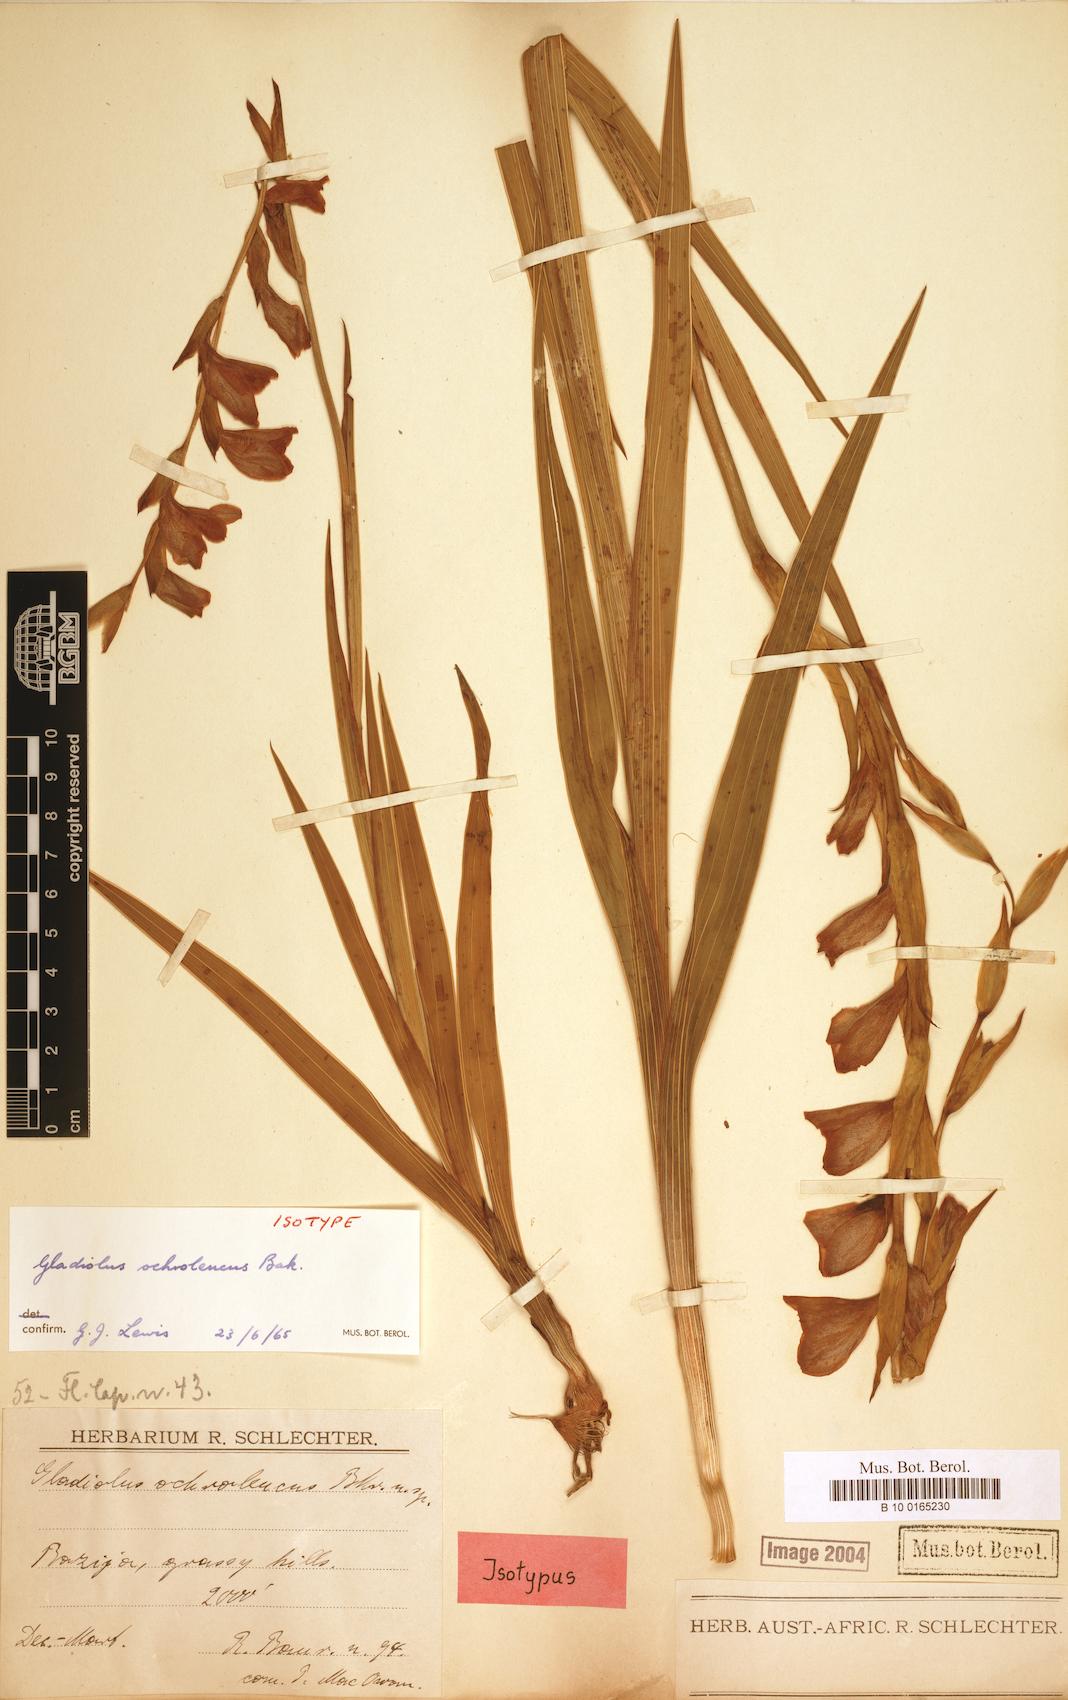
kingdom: Plantae
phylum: Tracheophyta
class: Liliopsida
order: Asparagales
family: Iridaceae
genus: Gladiolus
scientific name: Gladiolus ochroleucus
